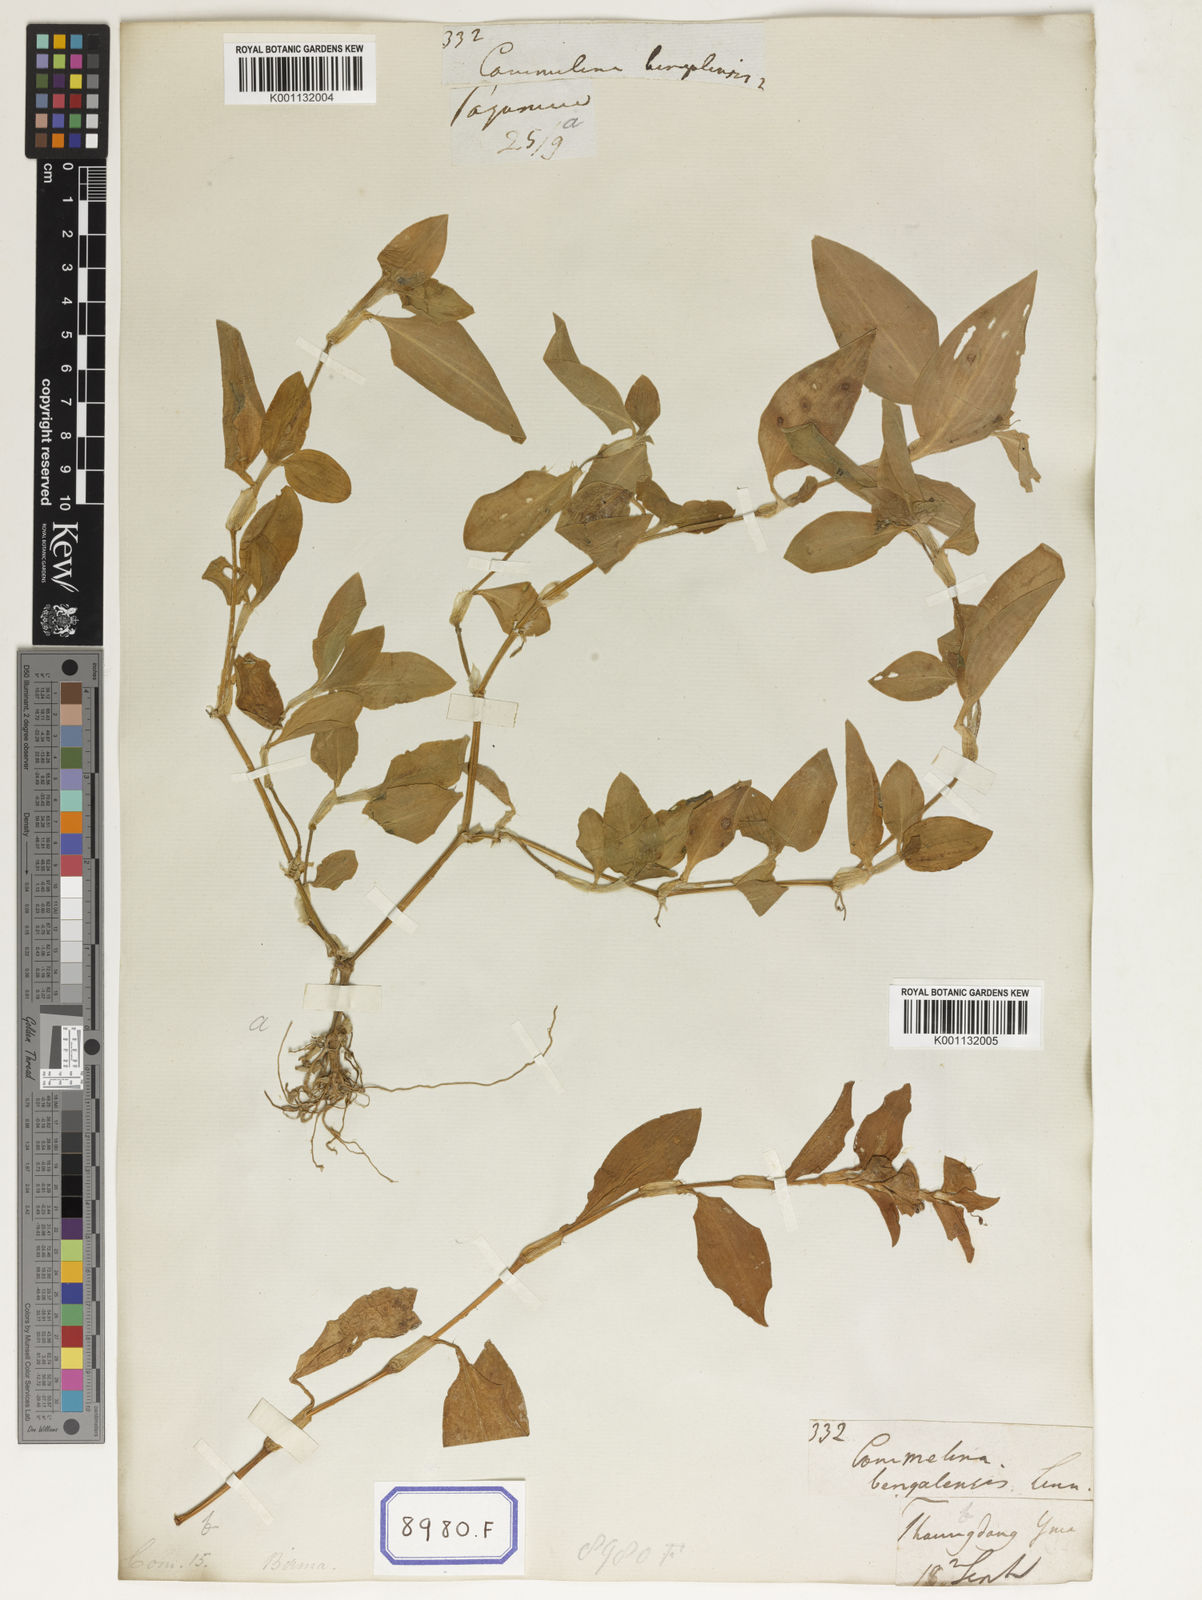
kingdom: Plantae
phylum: Tracheophyta
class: Liliopsida
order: Commelinales
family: Commelinaceae
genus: Commelina
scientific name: Commelina benghalensis
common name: Jio
